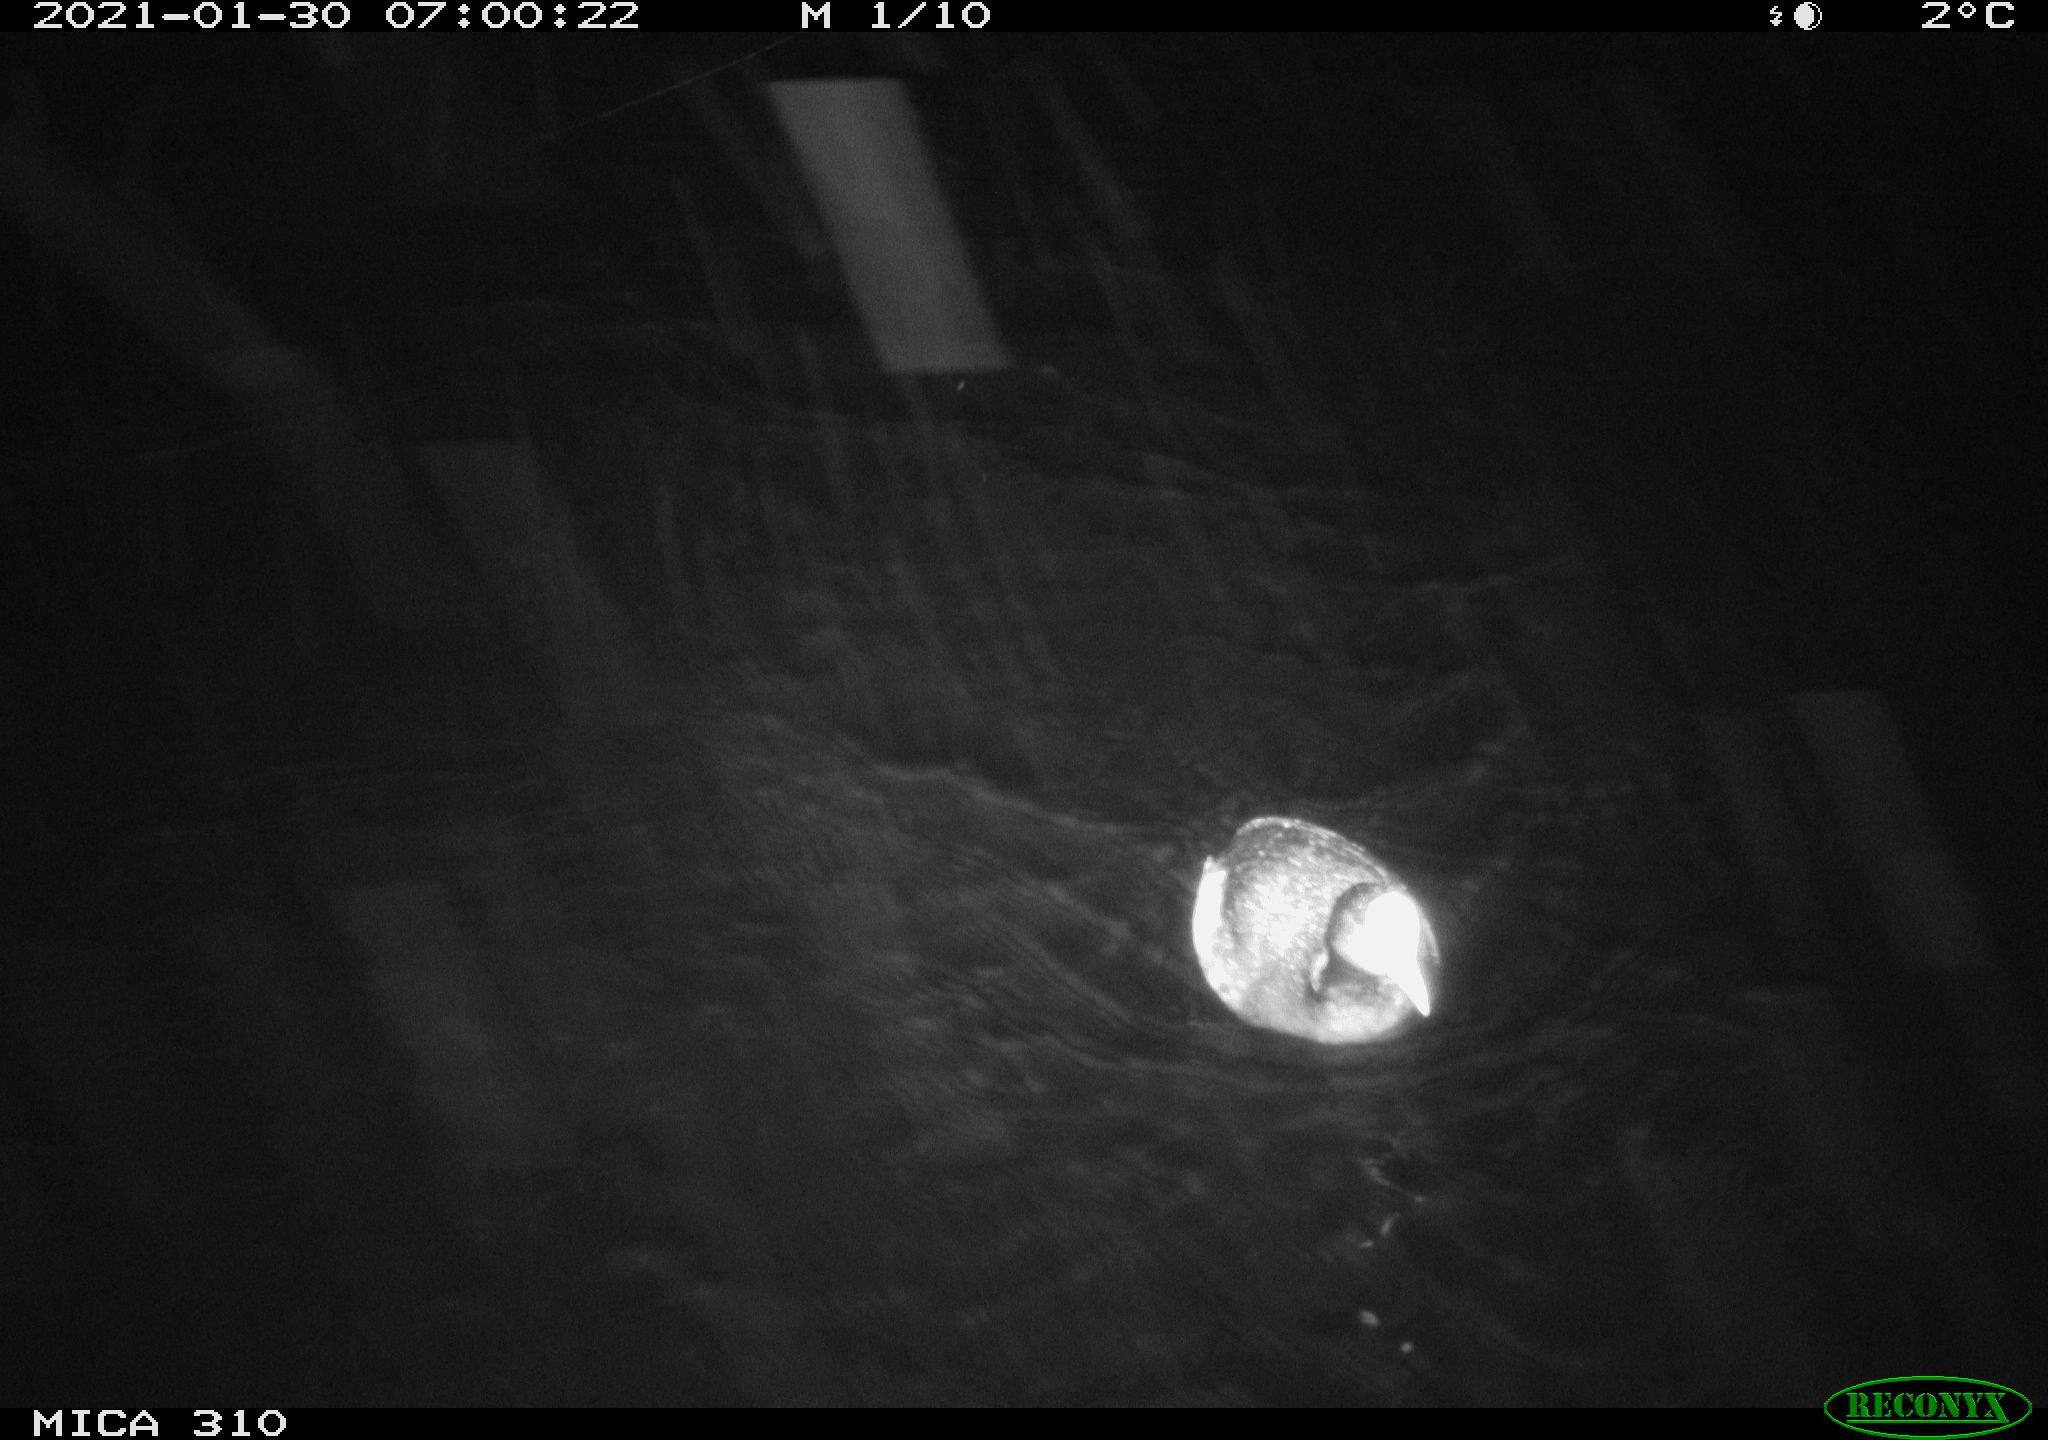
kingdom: Animalia
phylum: Chordata
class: Aves
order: Gruiformes
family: Rallidae
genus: Fulica
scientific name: Fulica atra
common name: Eurasian coot
